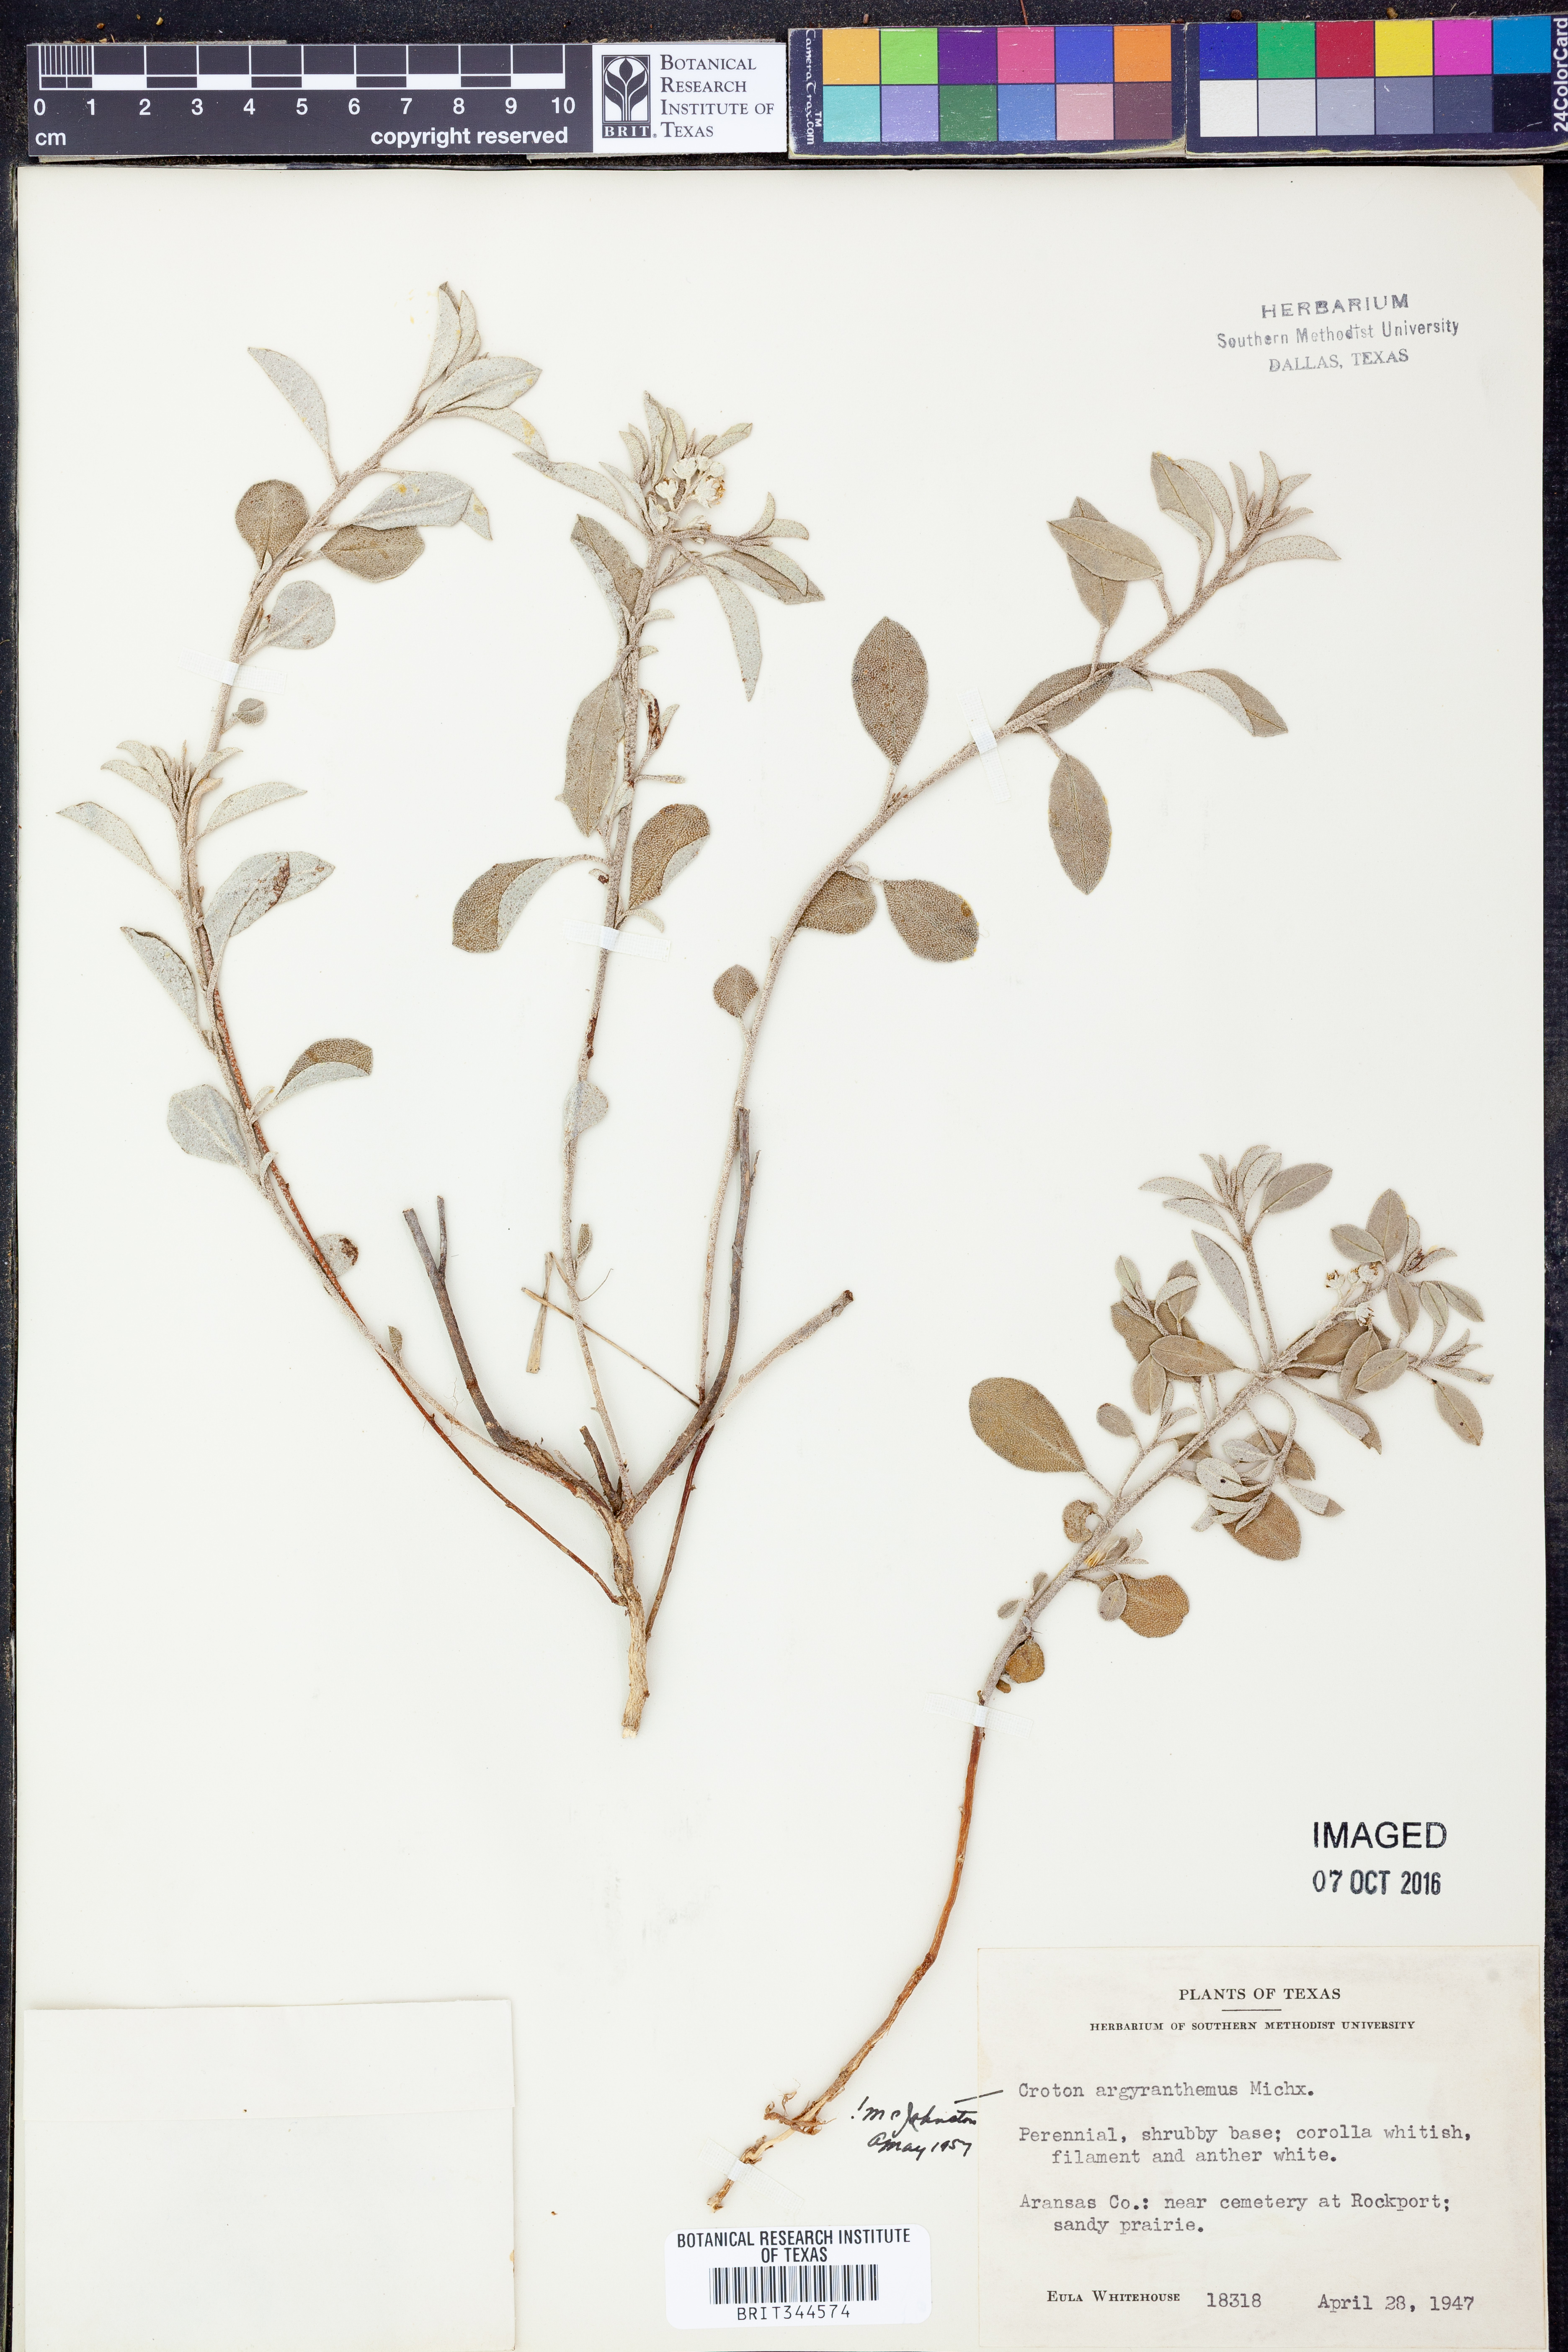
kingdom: Plantae
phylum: Tracheophyta
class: Magnoliopsida
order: Malpighiales
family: Euphorbiaceae
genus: Croton
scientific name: Croton argyranthemus
